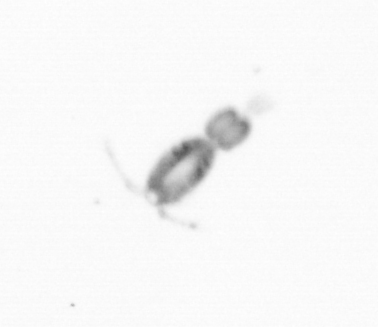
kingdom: Animalia
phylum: Arthropoda
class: Copepoda
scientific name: Copepoda
